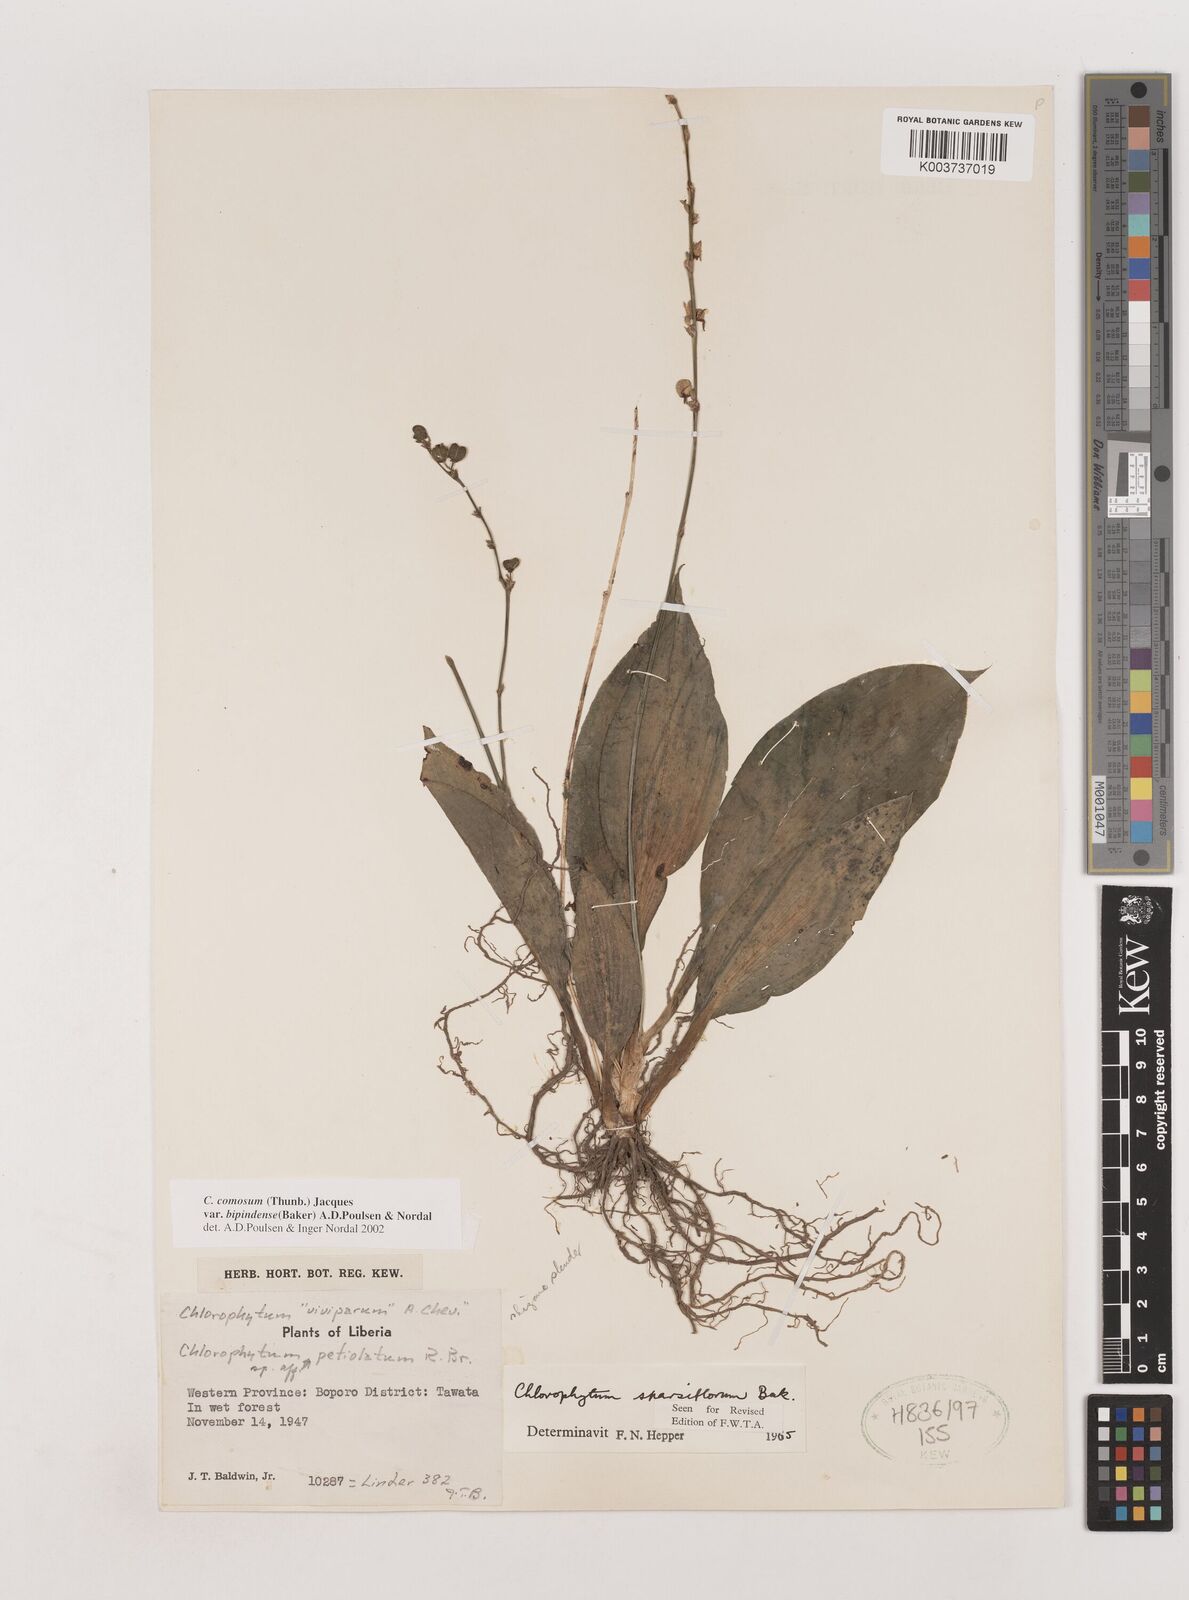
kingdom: Plantae
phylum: Tracheophyta
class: Liliopsida
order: Asparagales
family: Asparagaceae
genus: Chlorophytum
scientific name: Chlorophytum sparsiflorum
